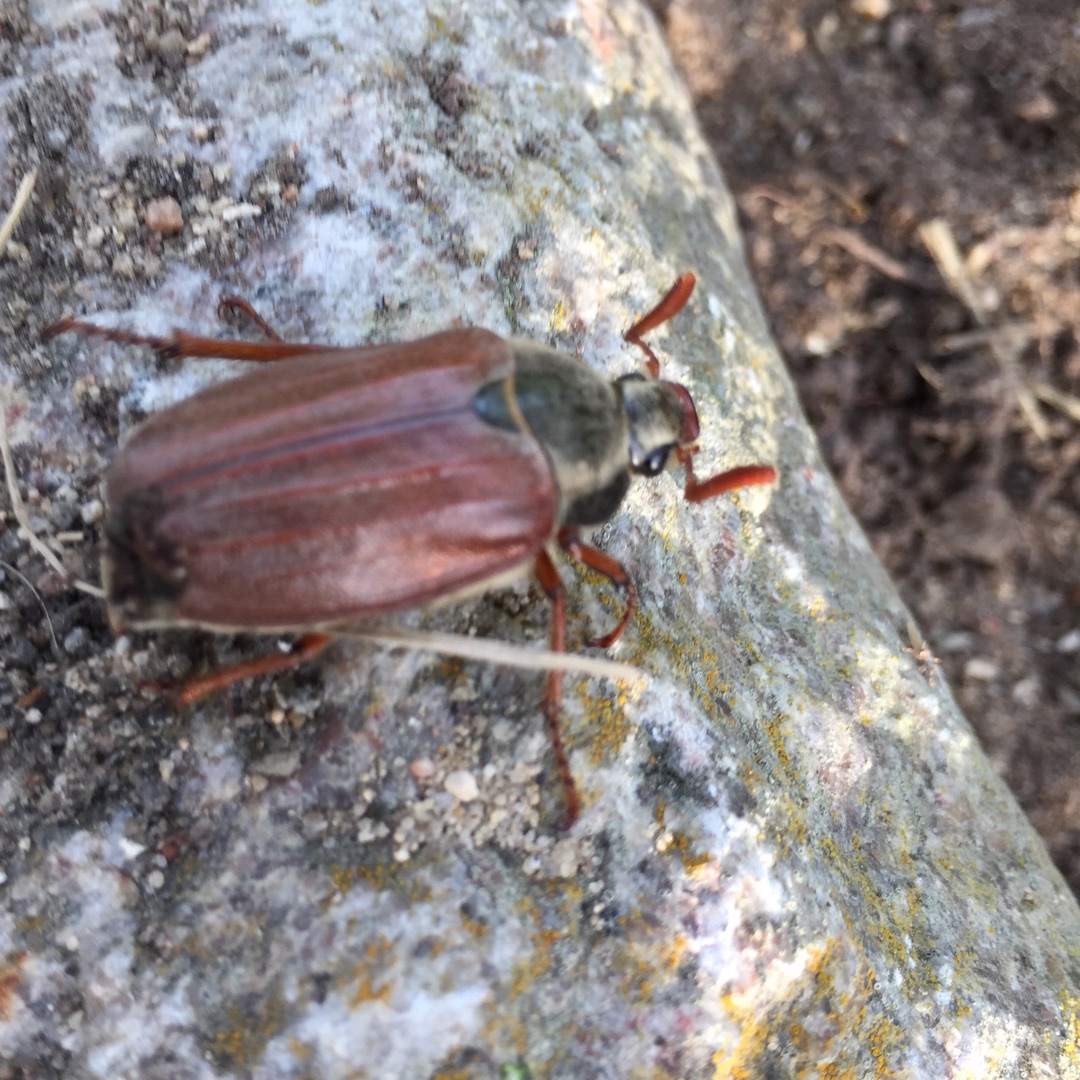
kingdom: Animalia
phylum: Arthropoda
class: Insecta
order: Coleoptera
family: Scarabaeidae
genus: Melolontha
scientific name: Melolontha melolontha
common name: Almindelig oldenborre
